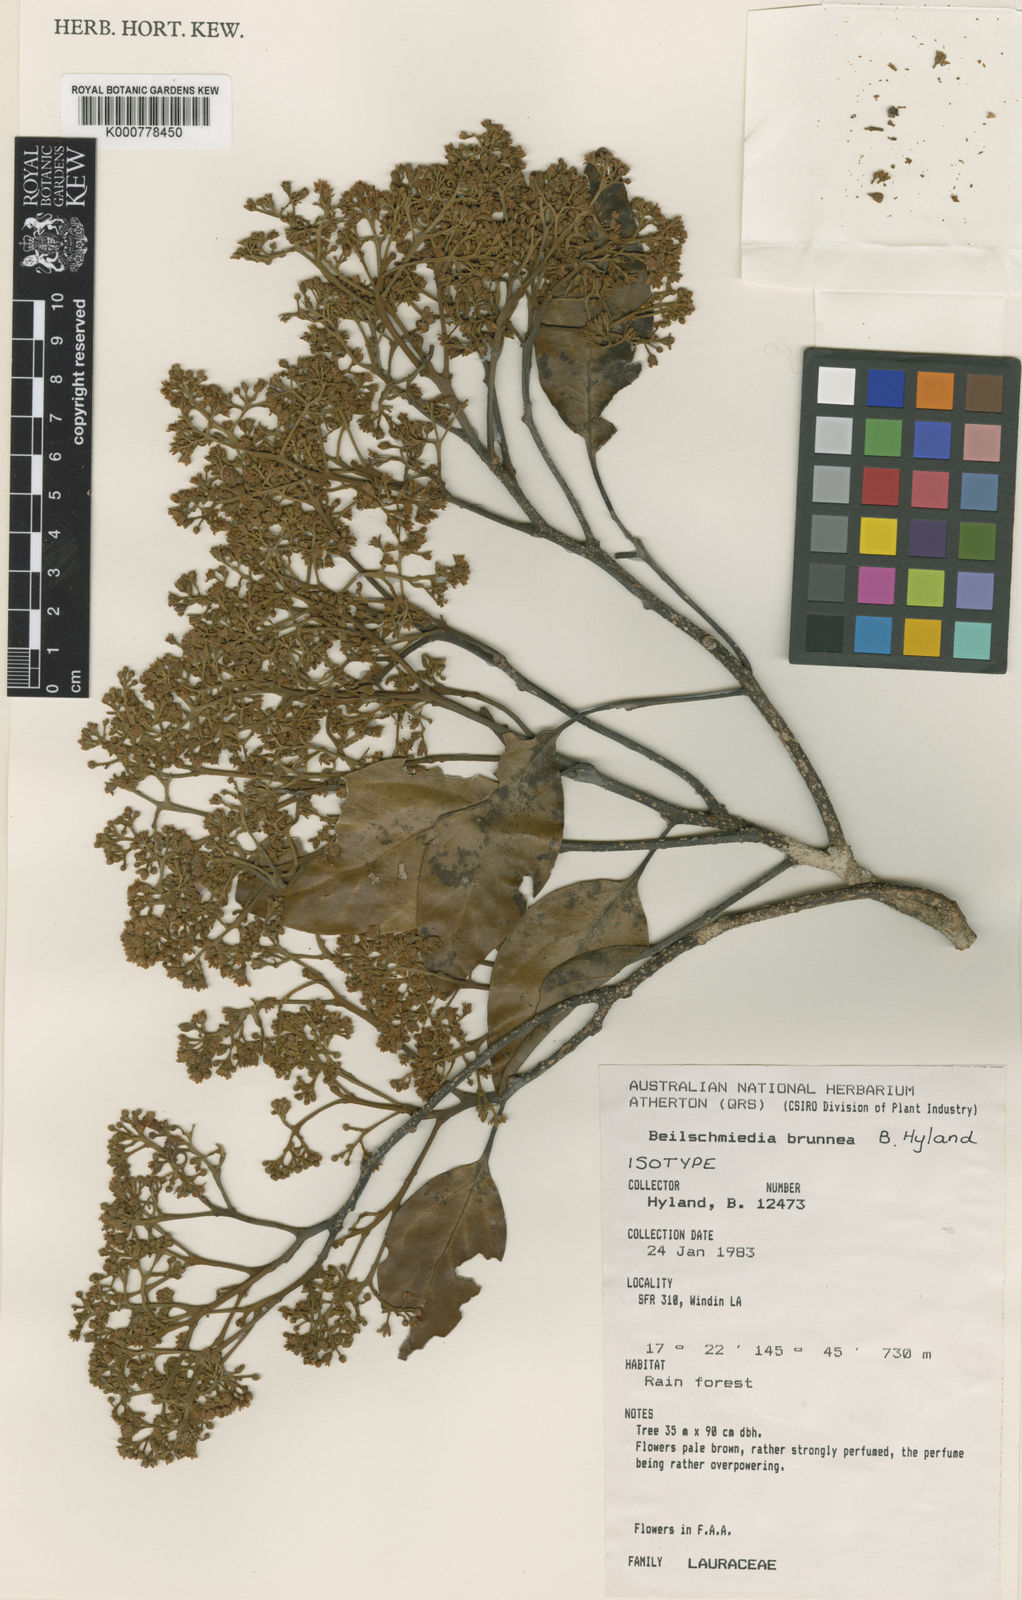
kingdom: Plantae
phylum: Tracheophyta
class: Magnoliopsida
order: Laurales
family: Lauraceae
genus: Beilschmiedia
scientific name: Beilschmiedia brunnea
